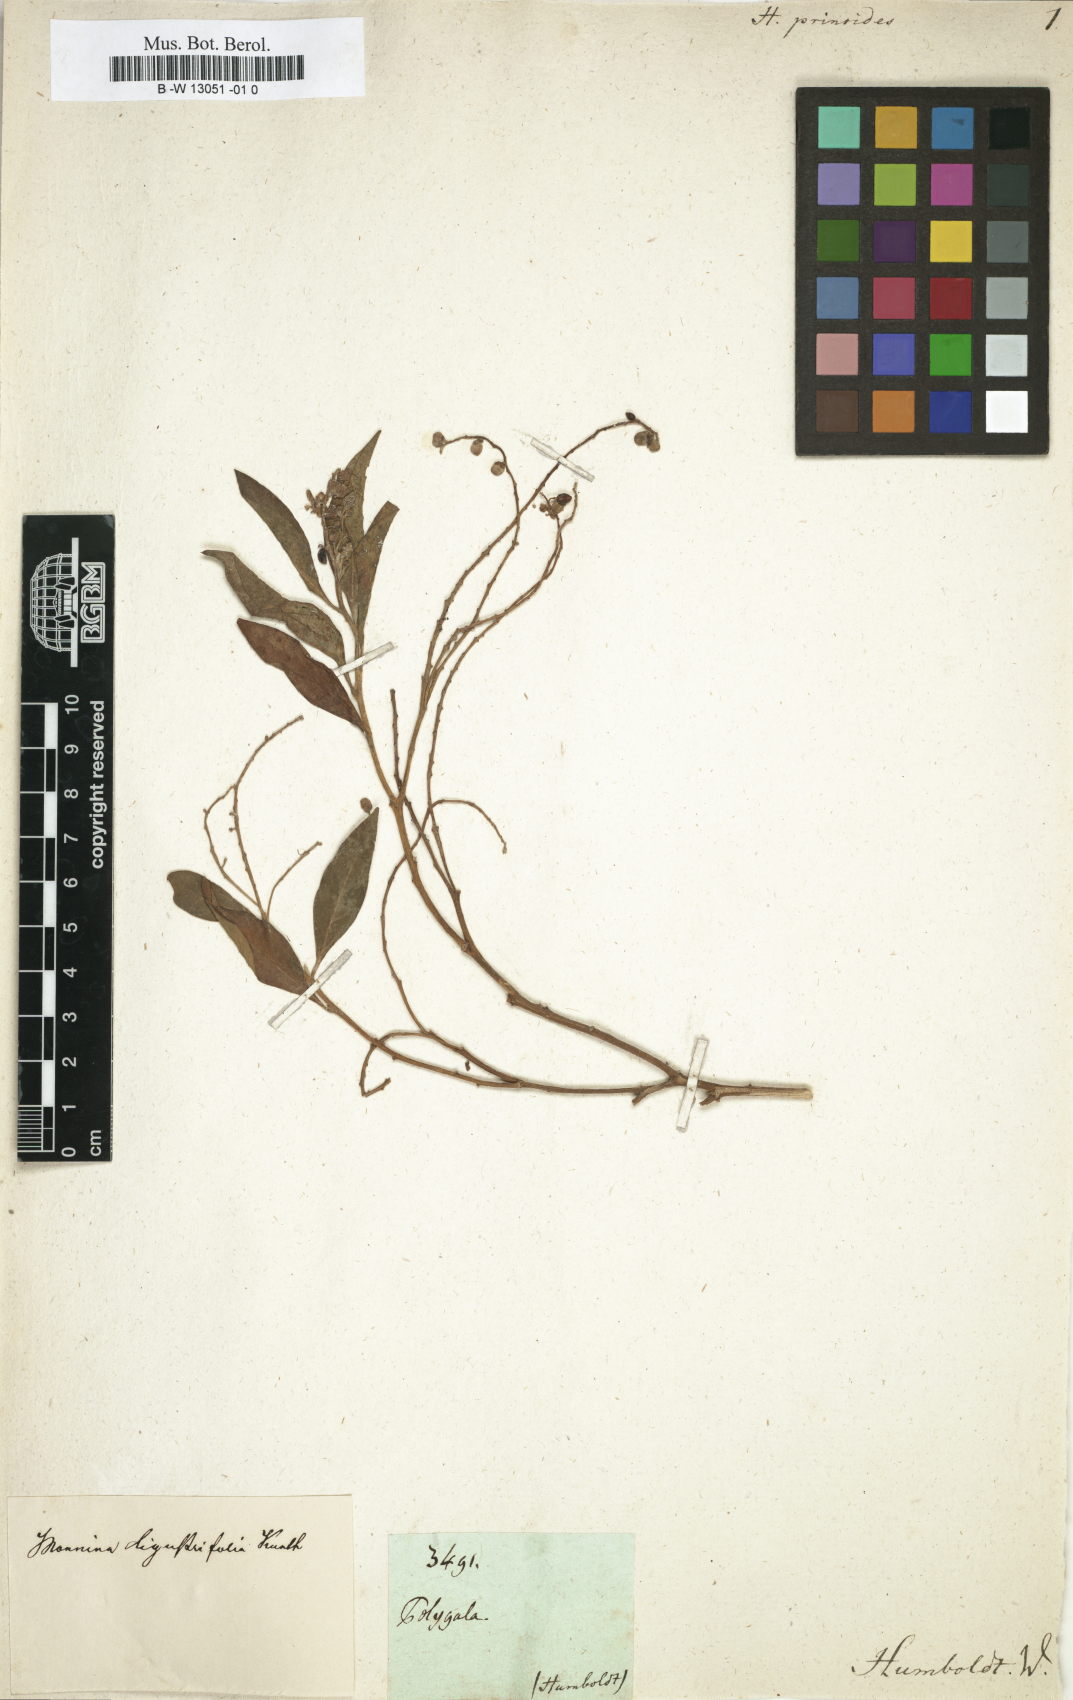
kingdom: Plantae
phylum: Tracheophyta
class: Magnoliopsida
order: Fabales
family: Polygalaceae
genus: Monnina
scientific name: Monnina ligustrina
